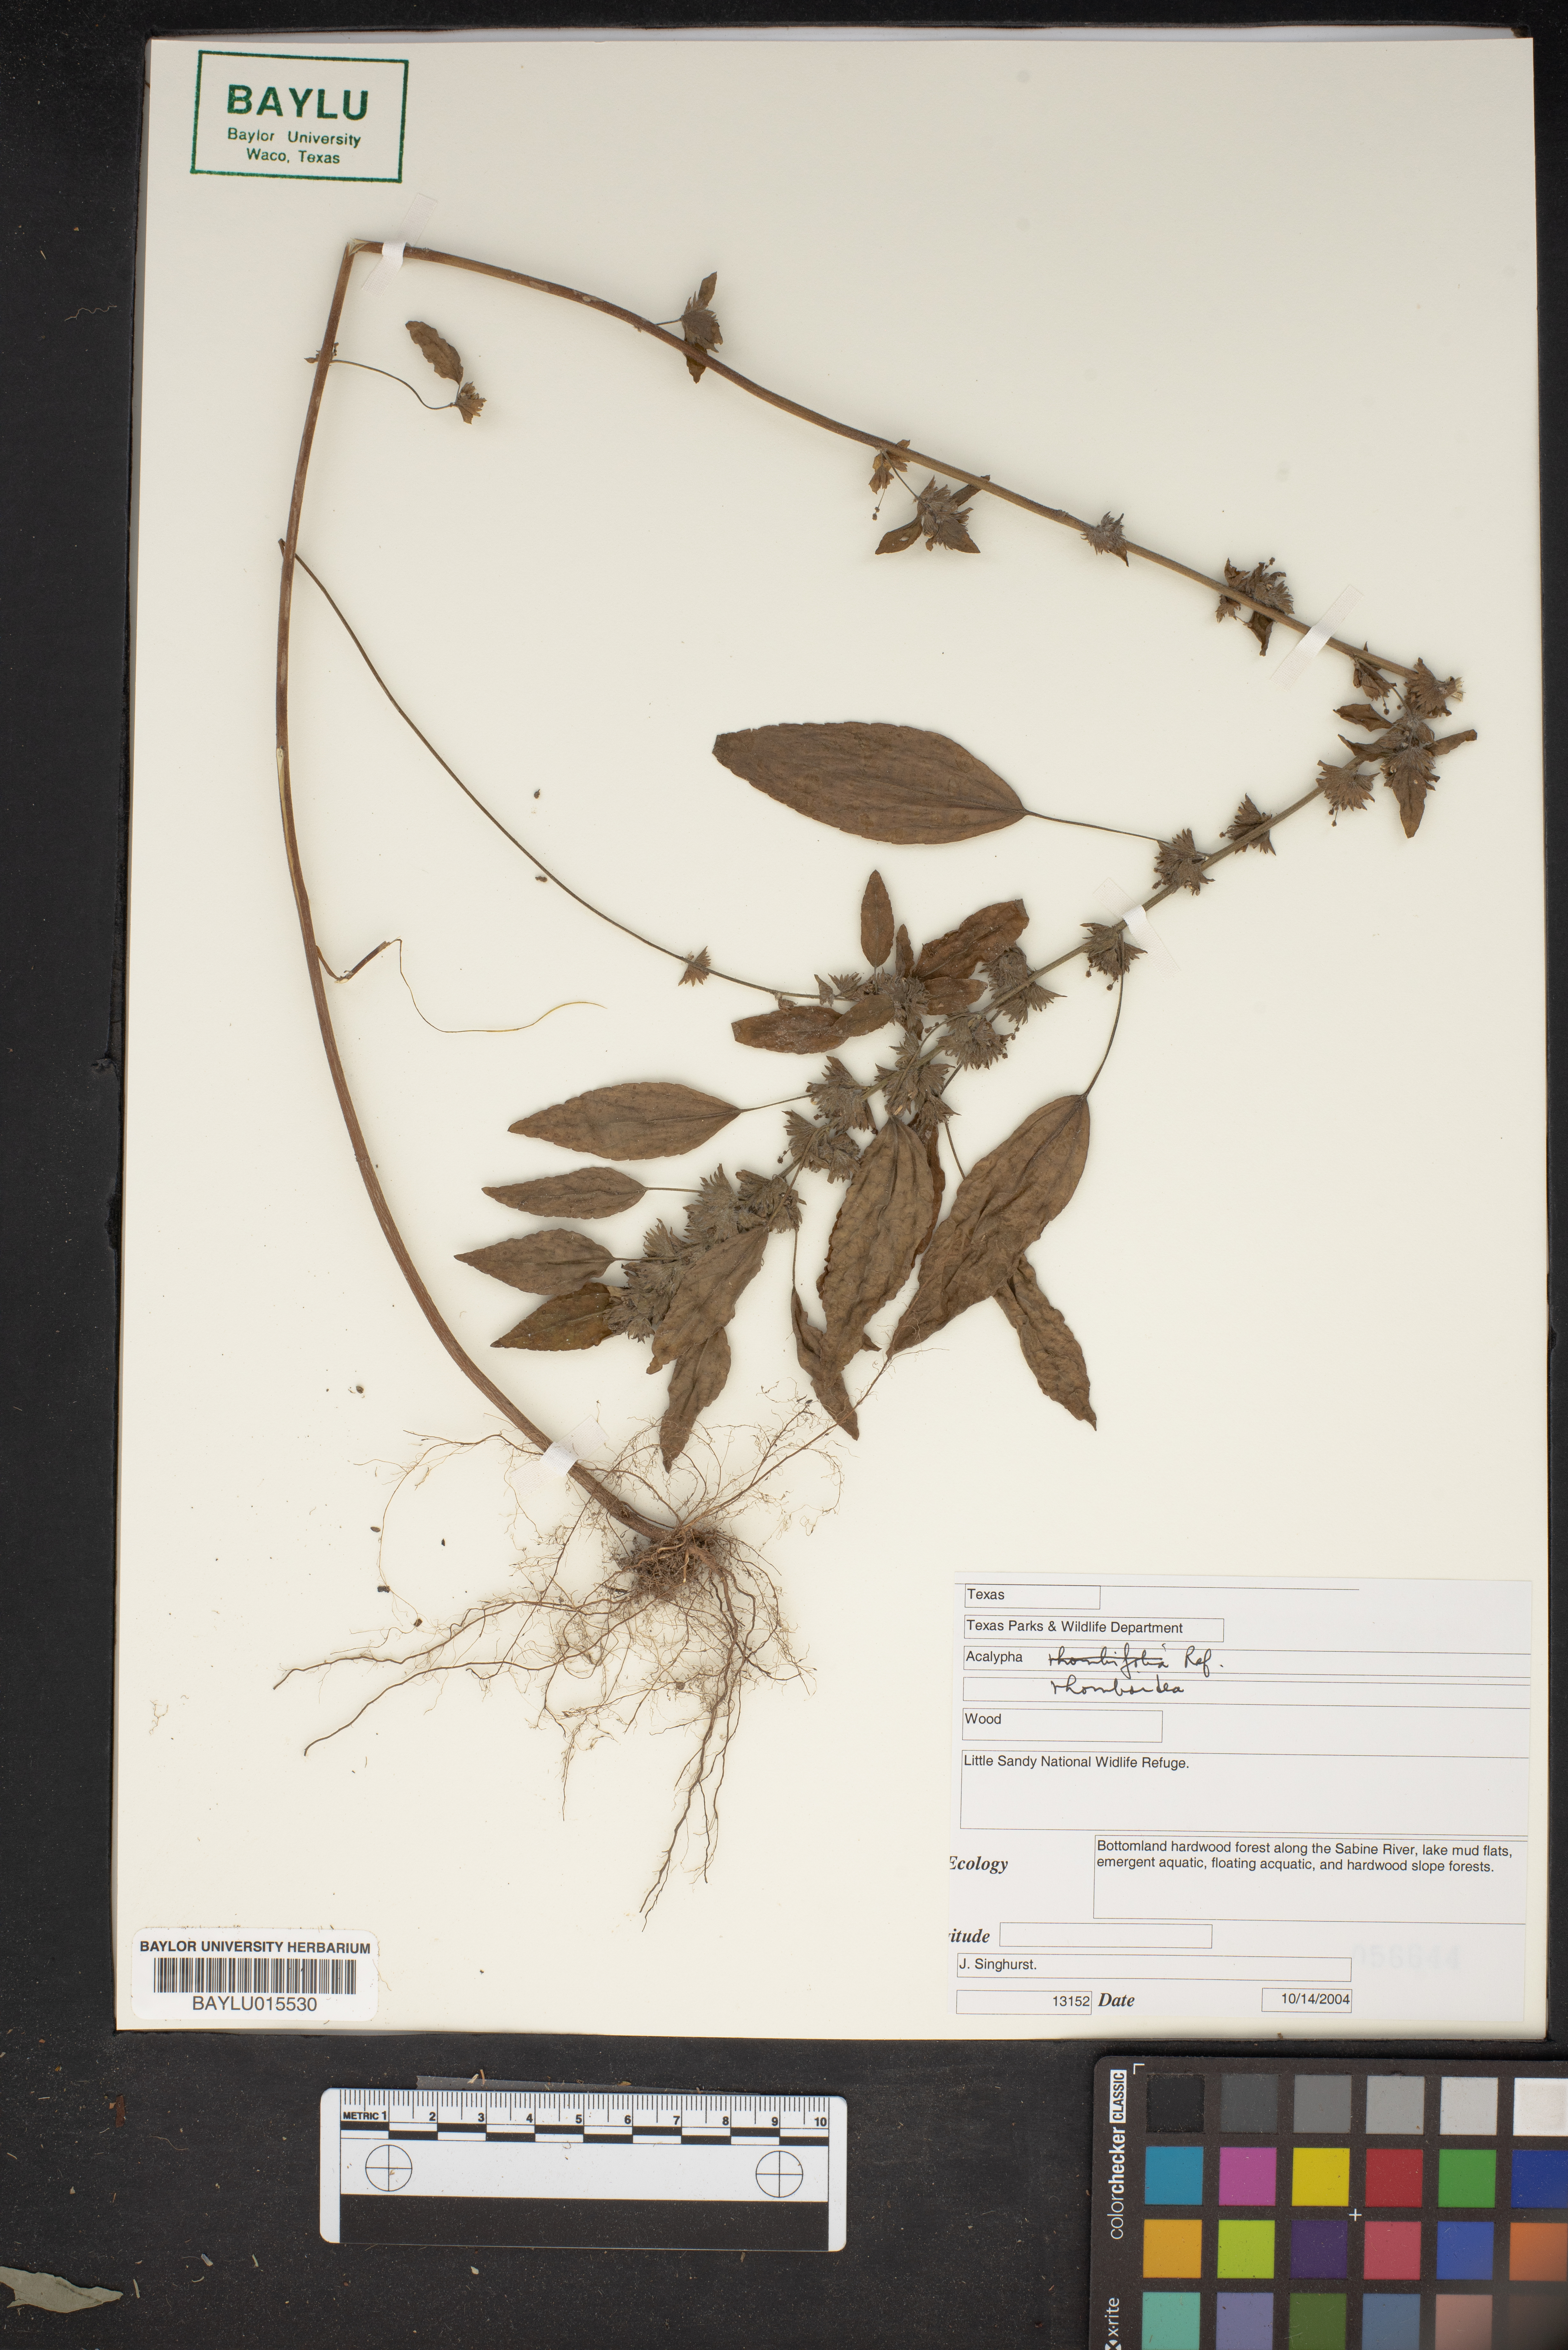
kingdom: Plantae
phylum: Tracheophyta
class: Magnoliopsida
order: Malpighiales
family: Euphorbiaceae
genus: Acalypha
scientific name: Acalypha rhomboidea
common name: Rhombic copperleaf
